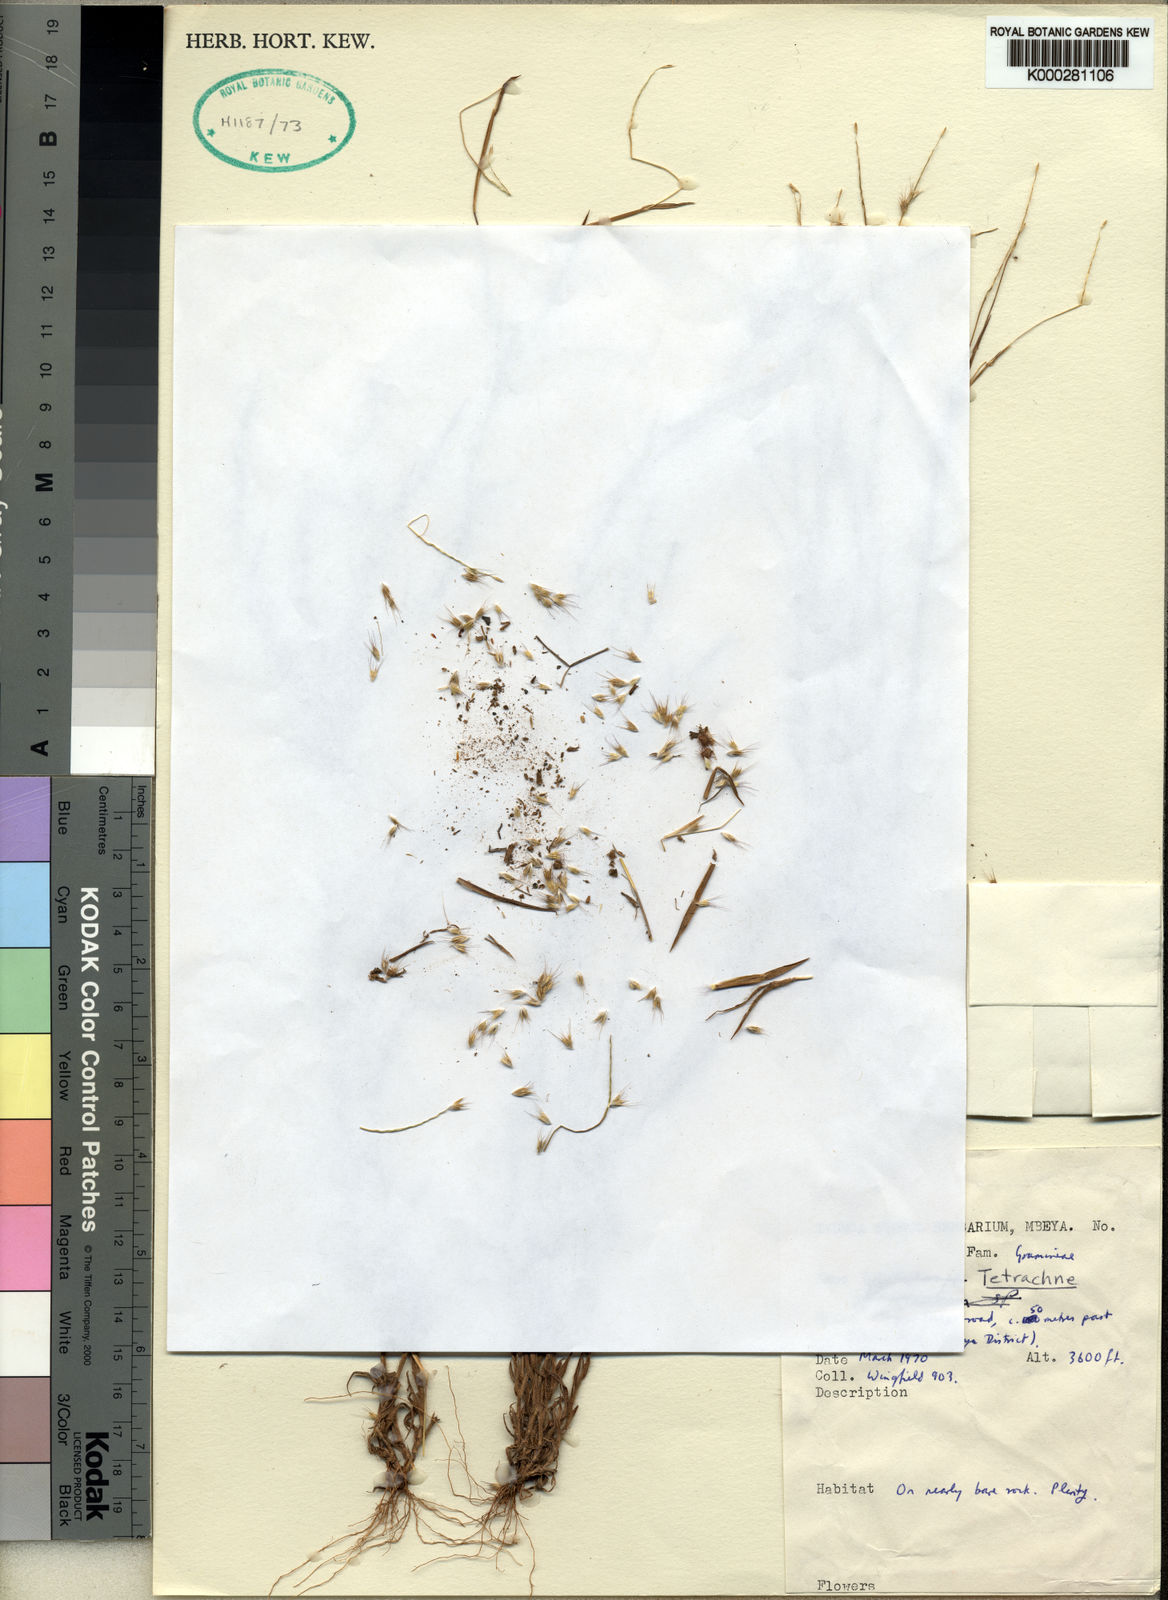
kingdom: Plantae
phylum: Tracheophyta
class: Liliopsida
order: Poales
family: Poaceae
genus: Chaetopoa
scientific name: Chaetopoa pilosa
